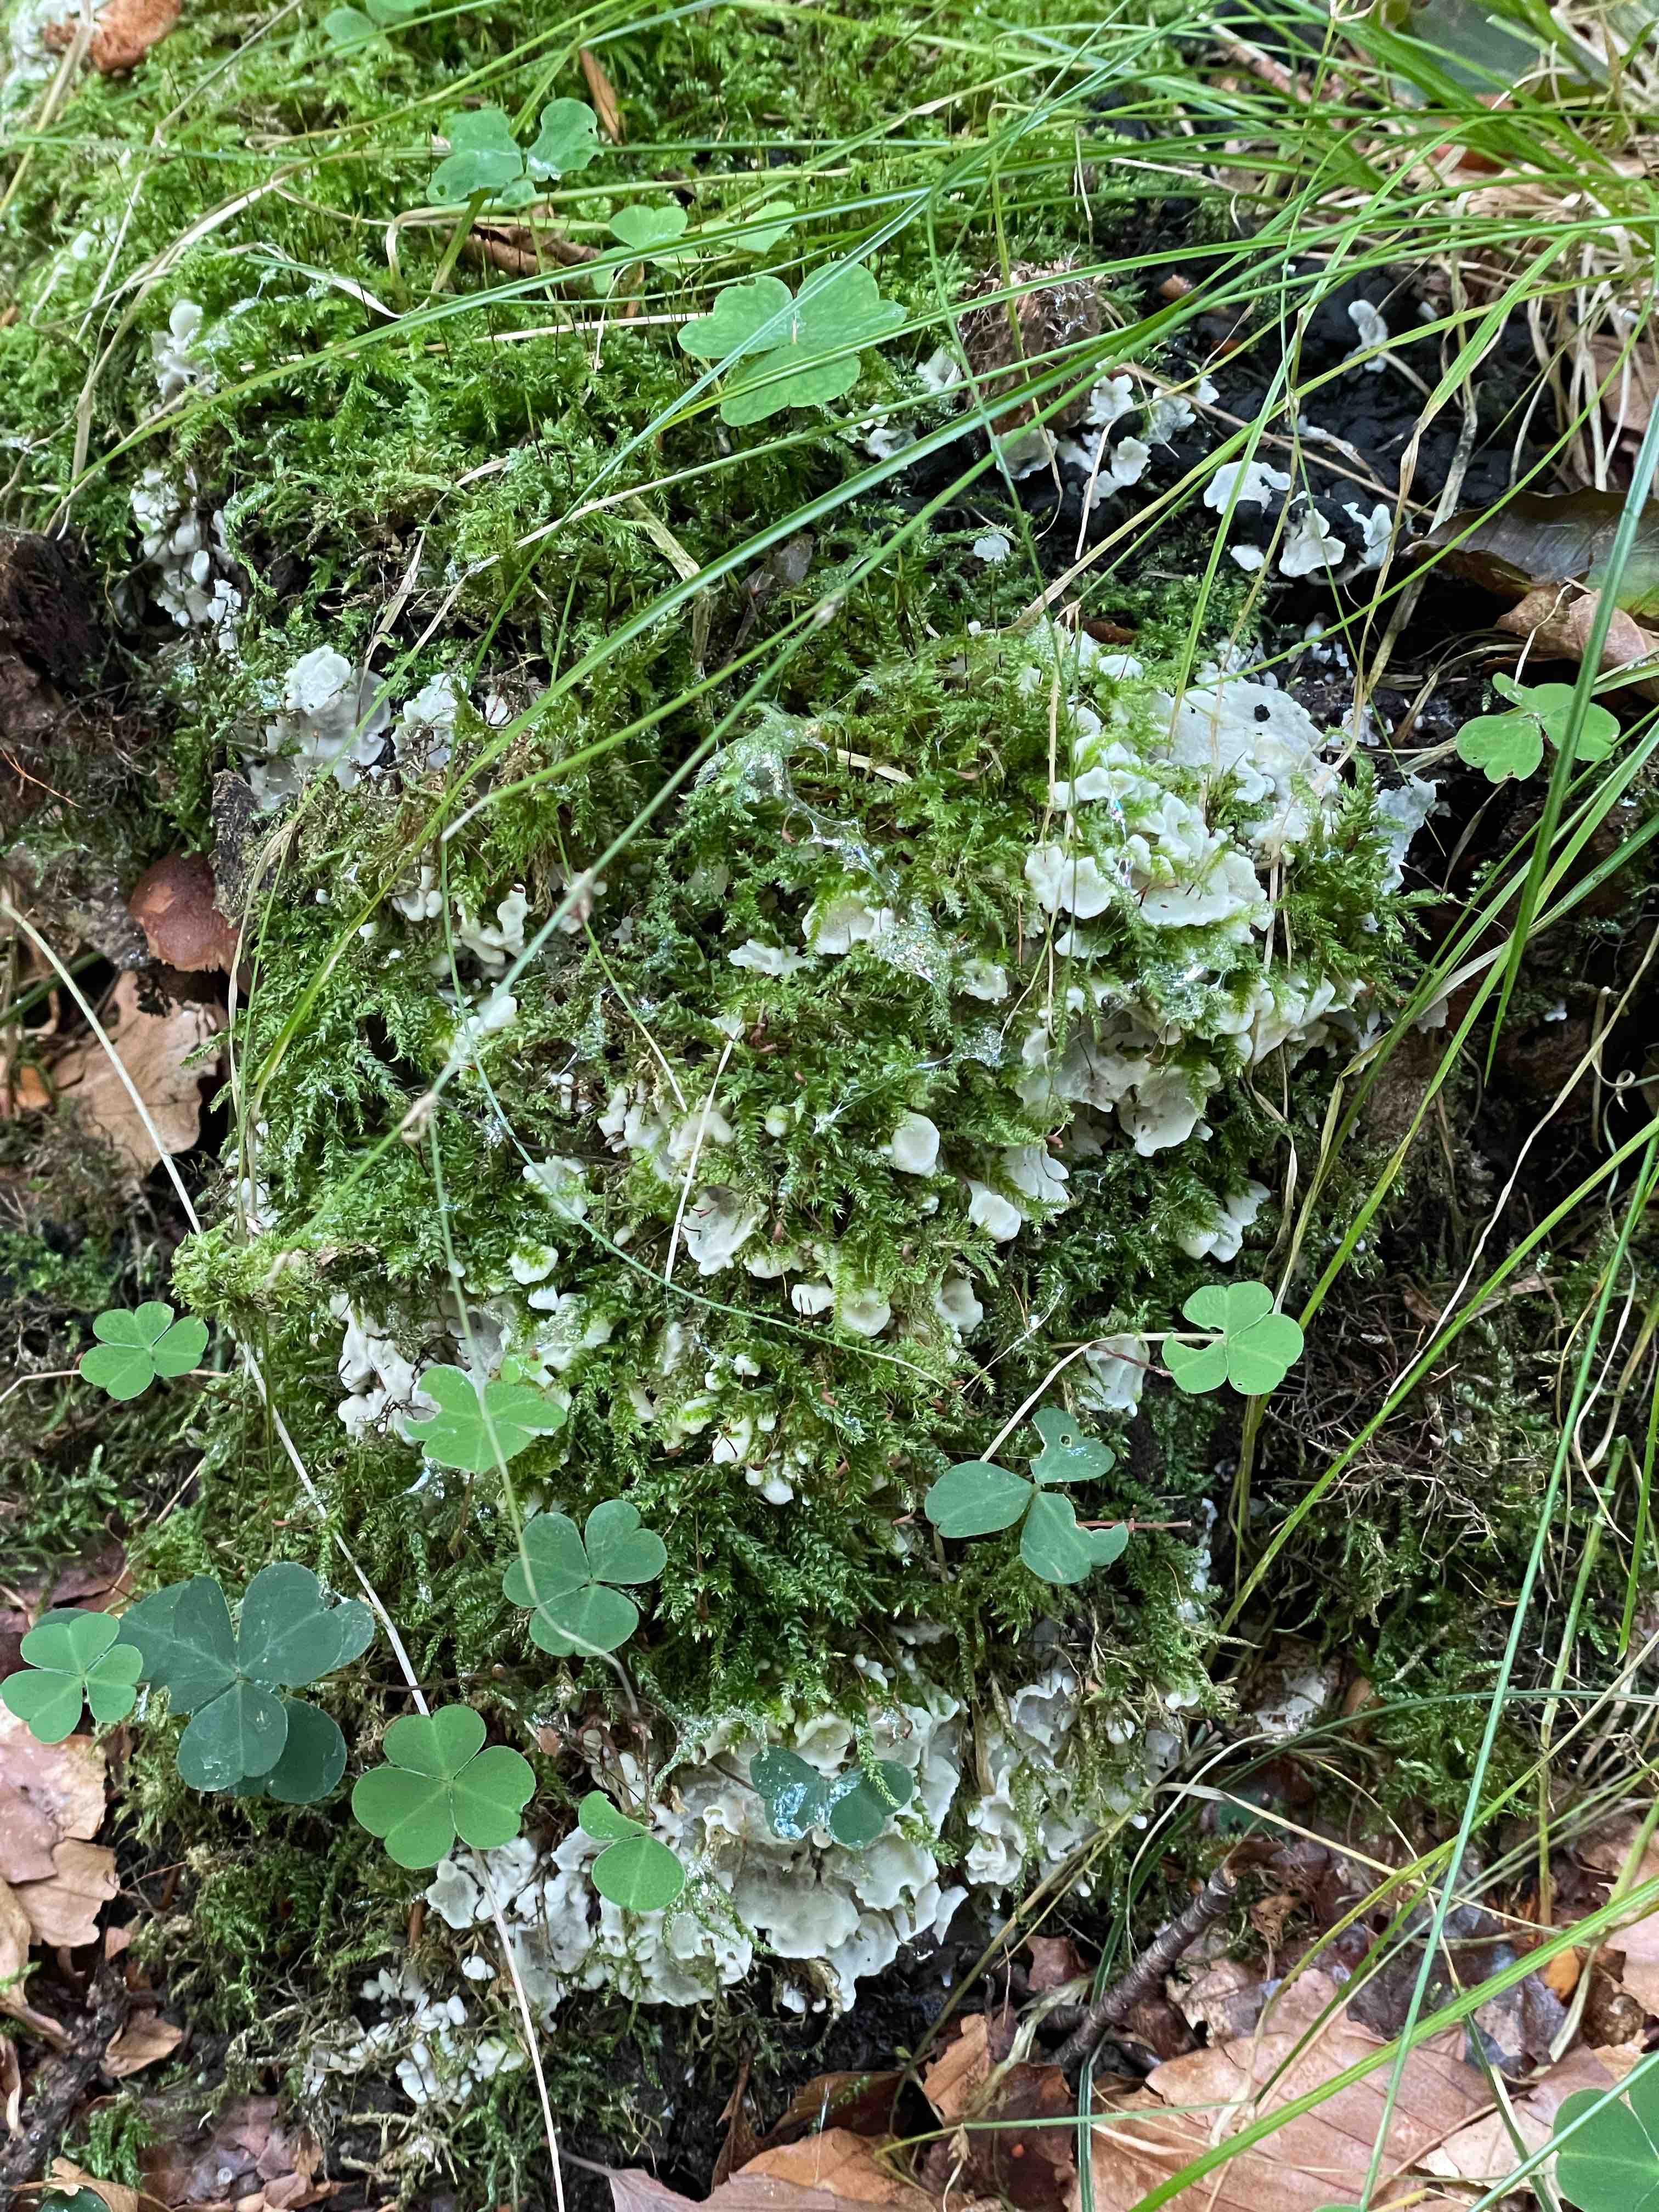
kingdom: Fungi
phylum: Basidiomycota
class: Agaricomycetes
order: Polyporales
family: Meruliaceae
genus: Physisporinus
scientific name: Physisporinus vitreus
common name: mastesvamp
